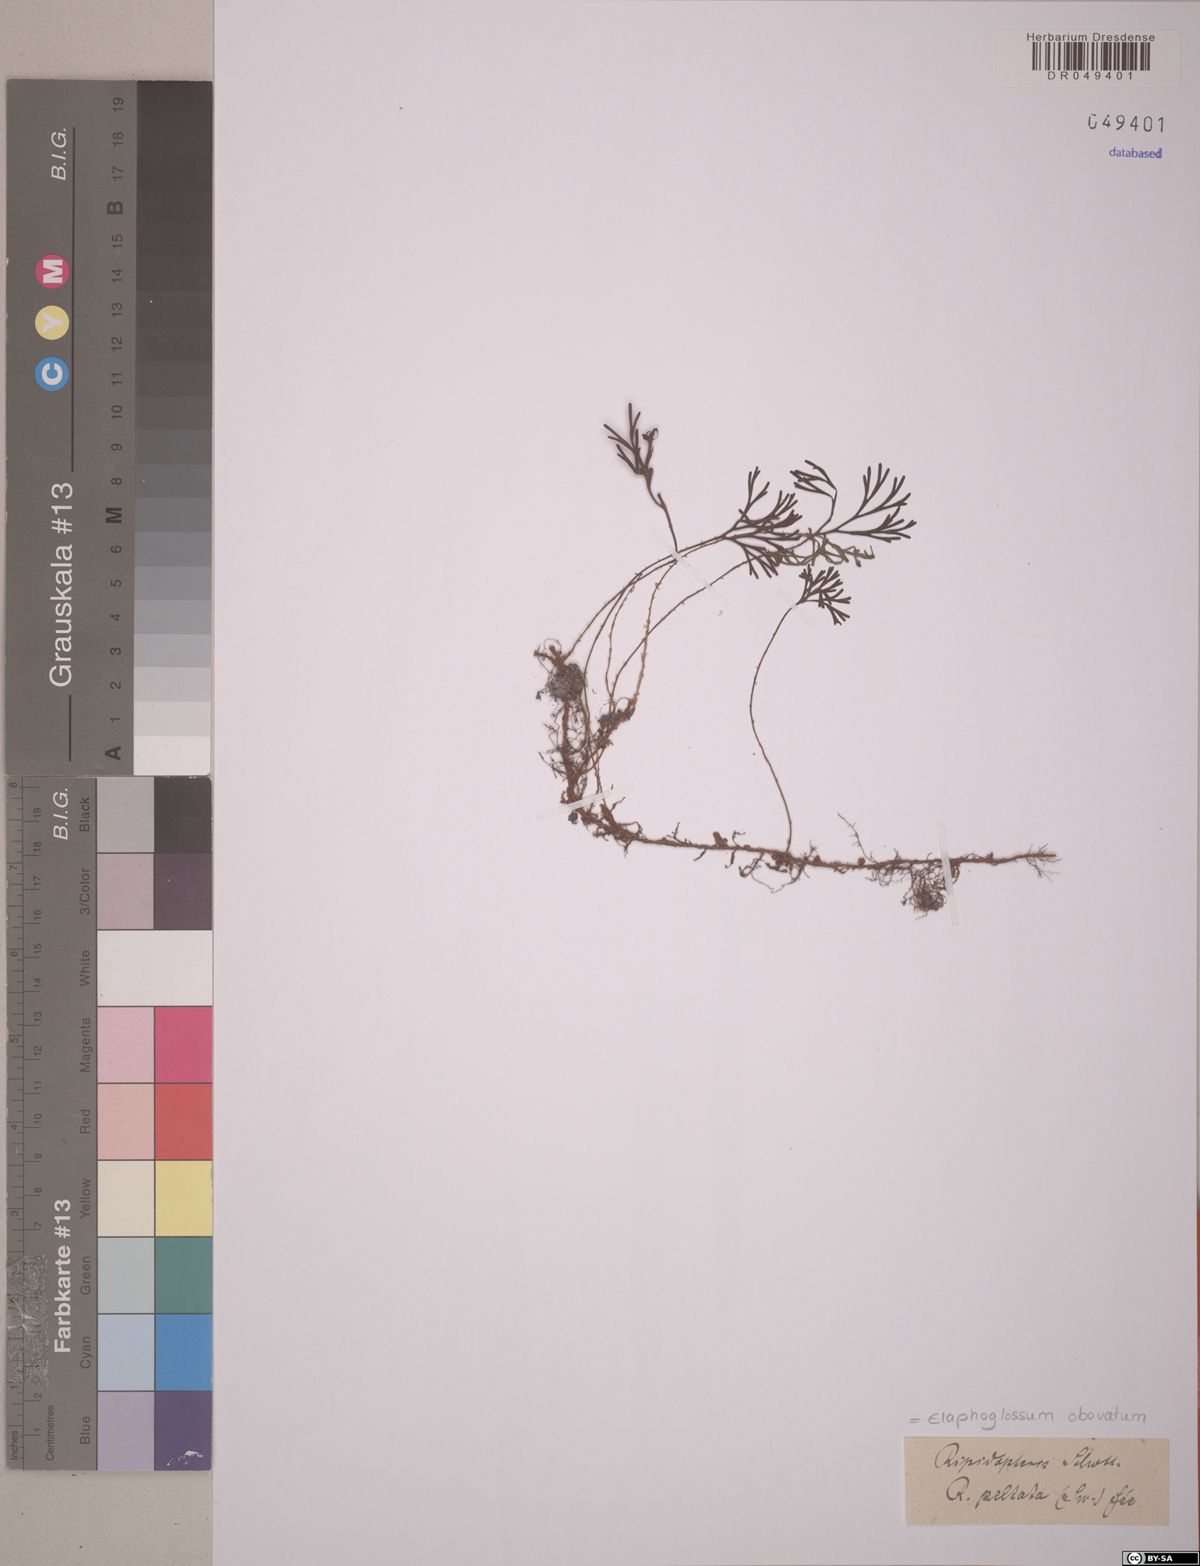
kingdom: Plantae
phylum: Tracheophyta
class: Polypodiopsida
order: Polypodiales
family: Dryopteridaceae
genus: Elaphoglossum
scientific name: Elaphoglossum obovatum
